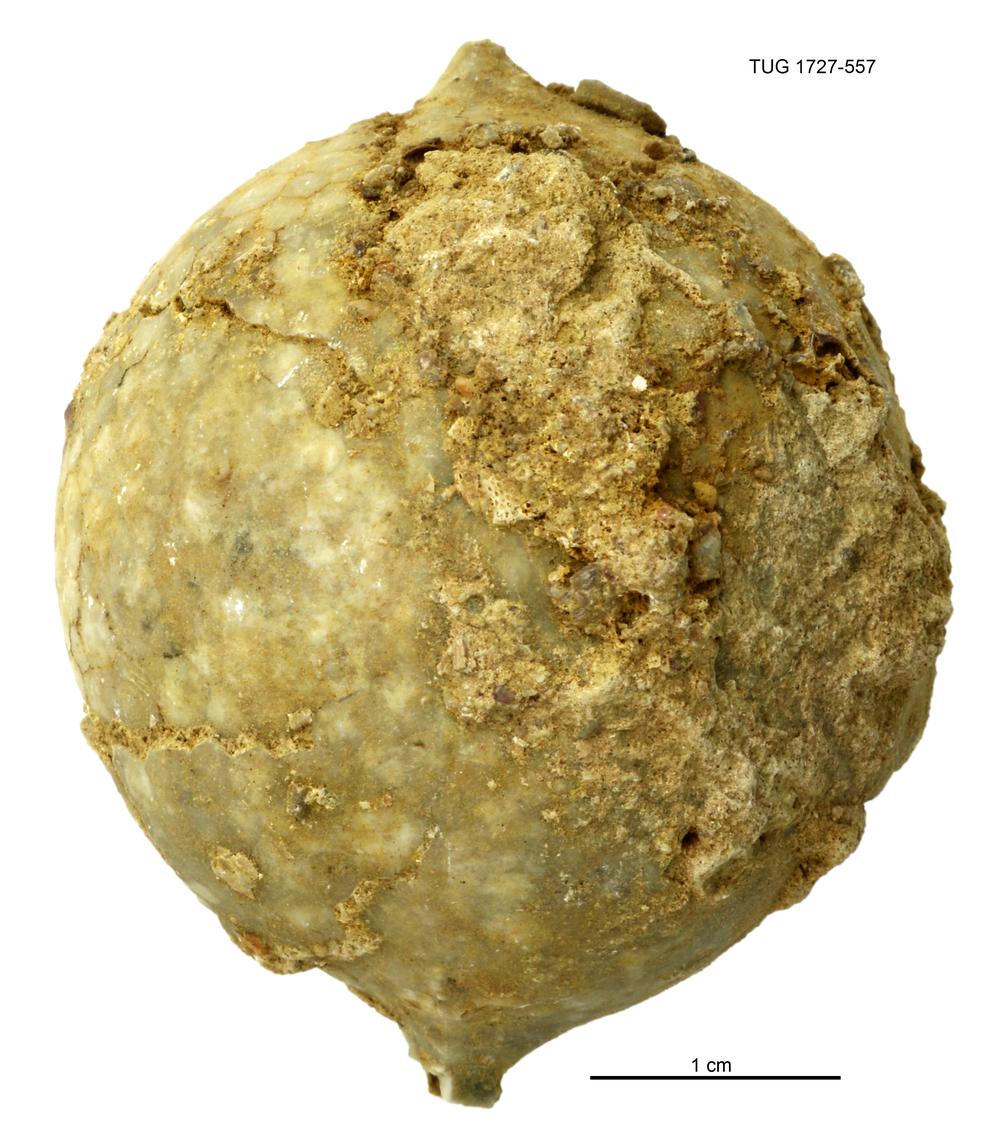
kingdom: Animalia
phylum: Echinodermata
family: Echinosphaeritidae
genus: Echinosphaerites
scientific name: Echinosphaerites
